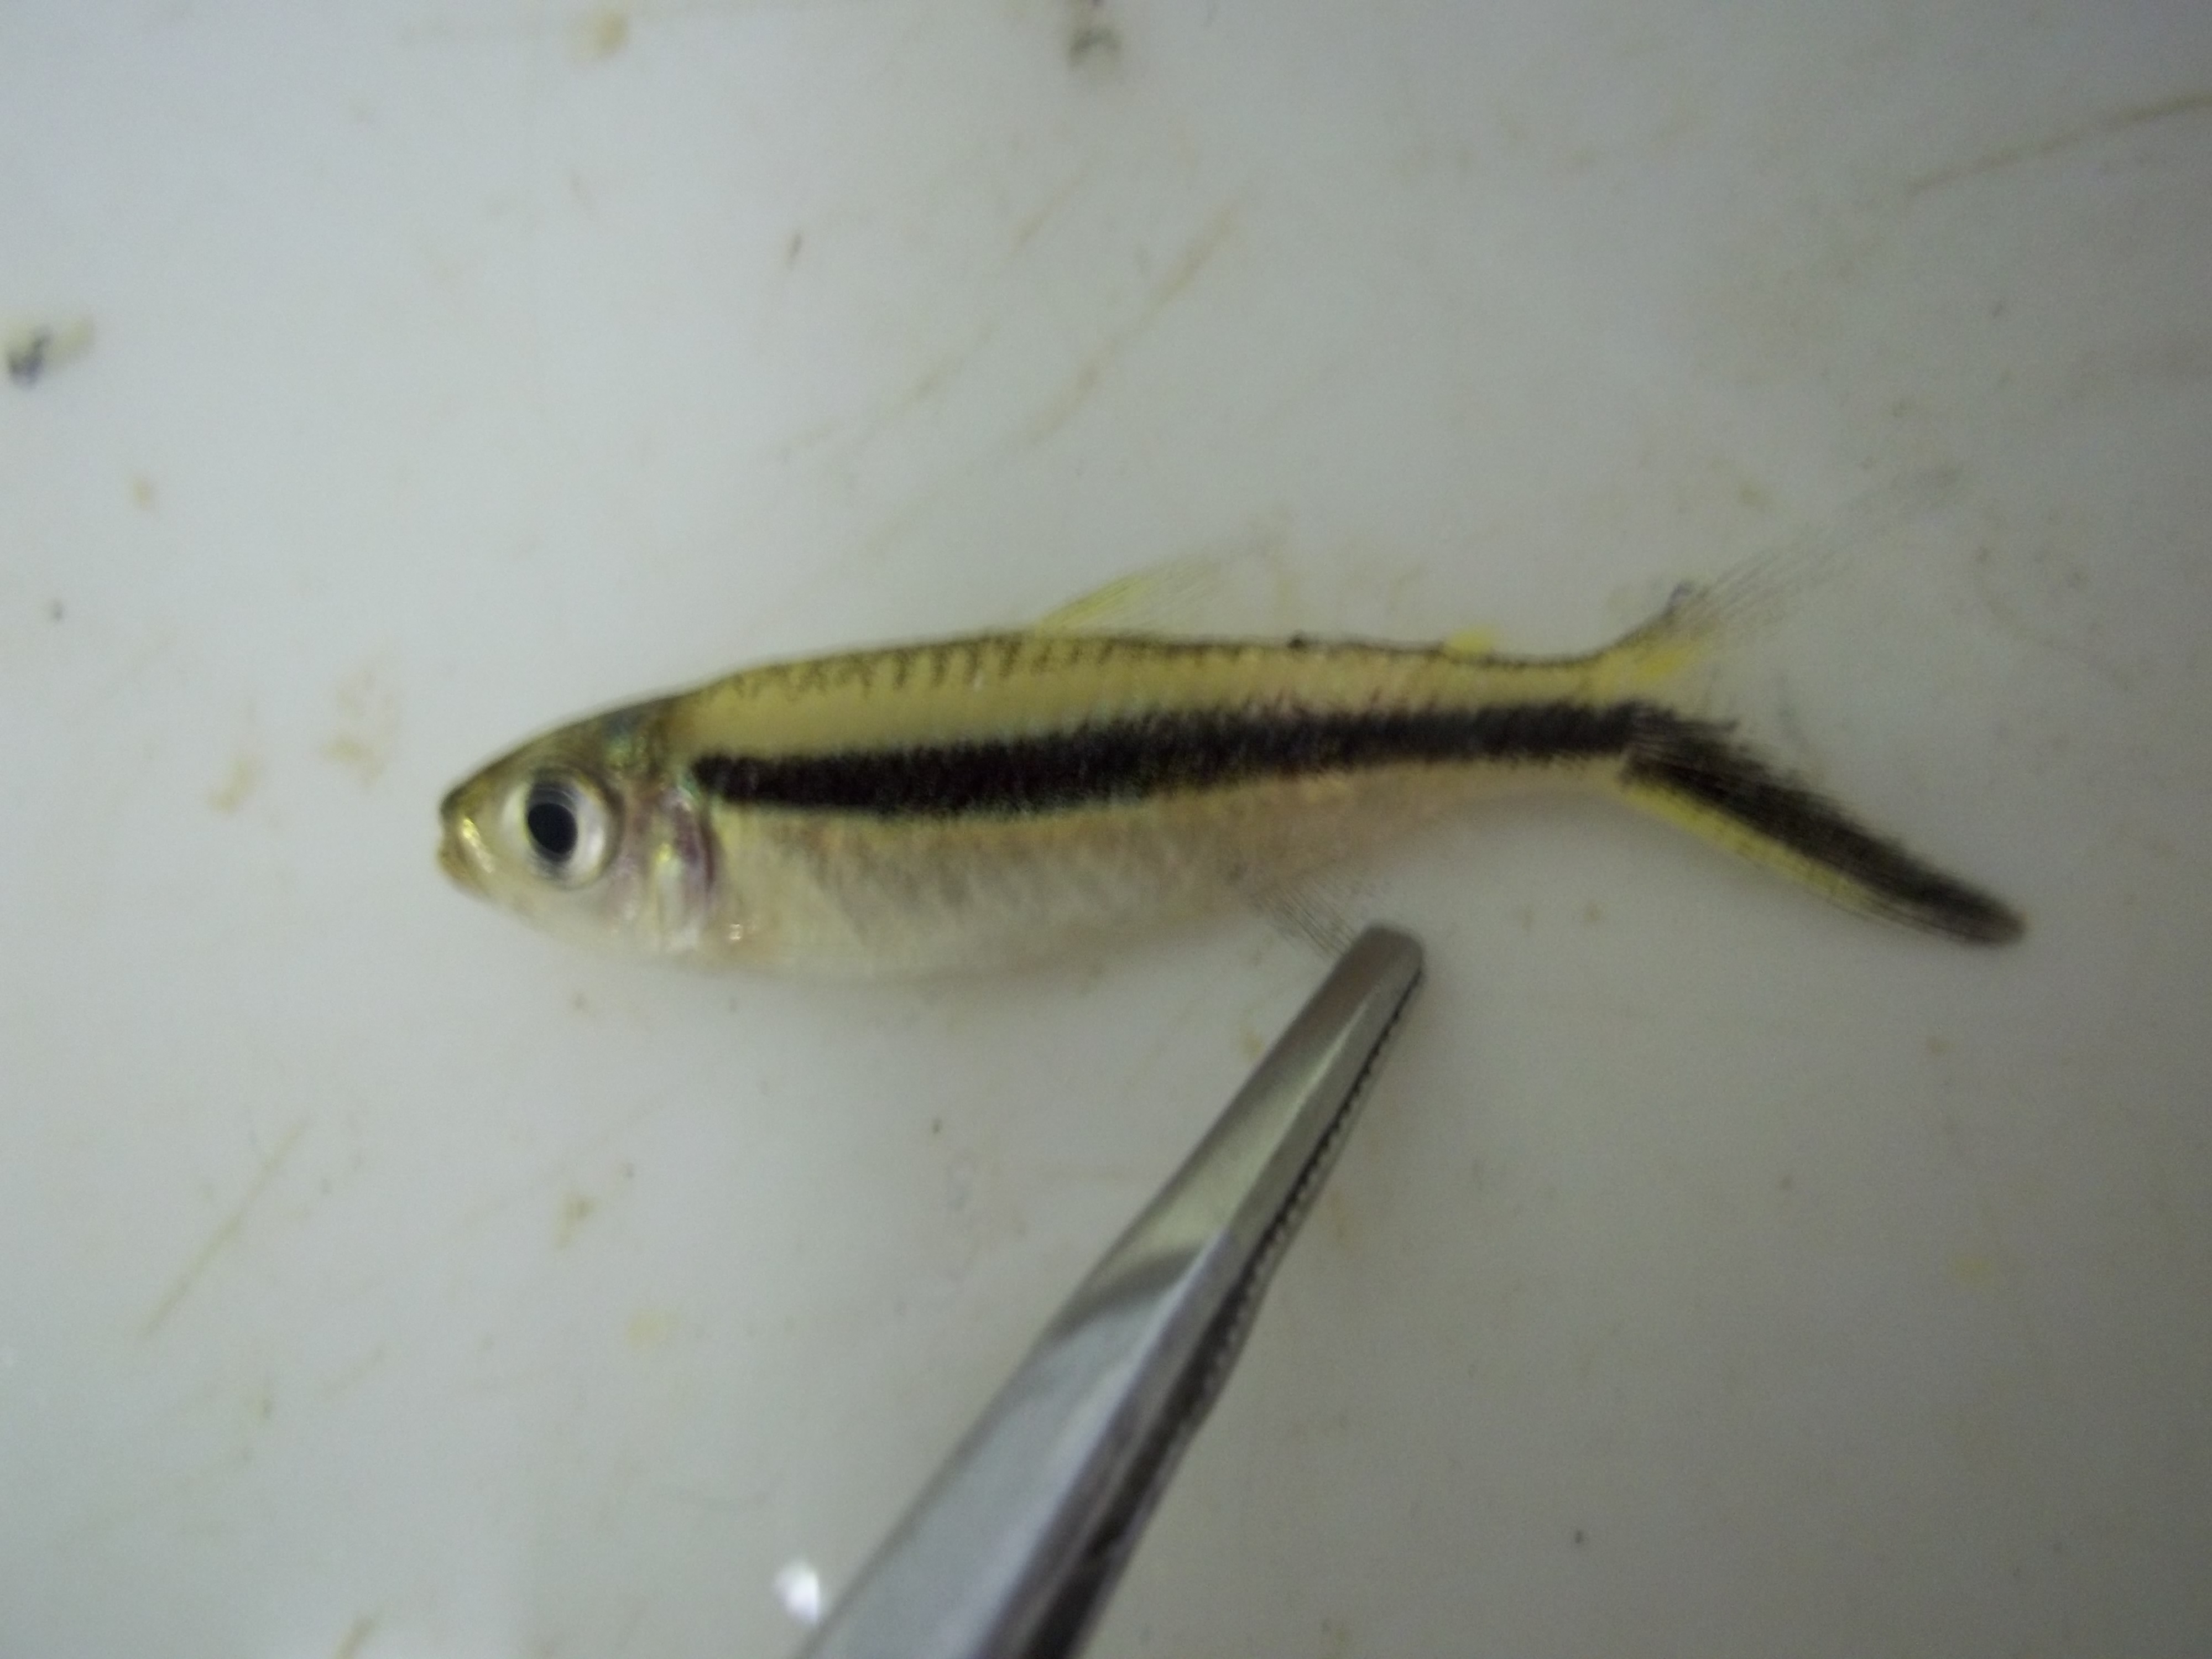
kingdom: Animalia
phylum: Chordata
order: Characiformes
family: Characidae
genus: Thayeria
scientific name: Thayeria boehlkei
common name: Blackline penguinfish
